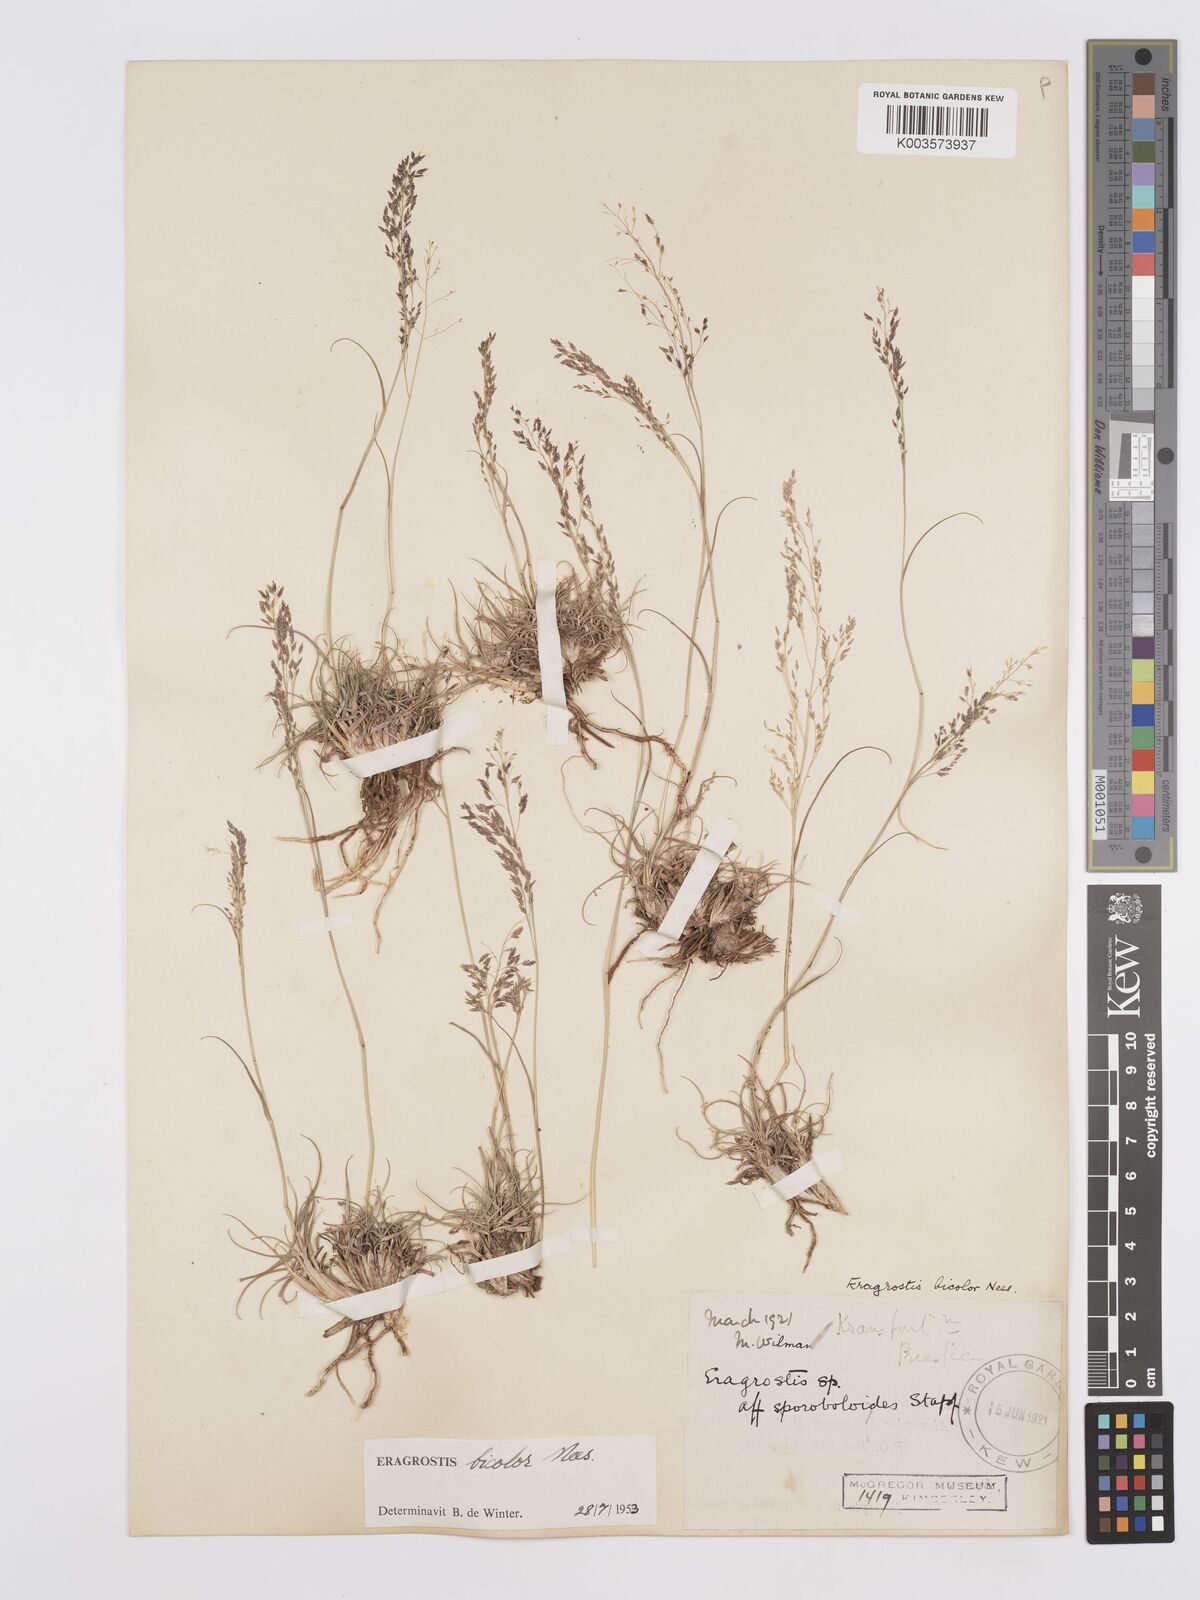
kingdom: Plantae
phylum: Tracheophyta
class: Liliopsida
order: Poales
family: Poaceae
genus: Eragrostis
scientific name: Eragrostis
